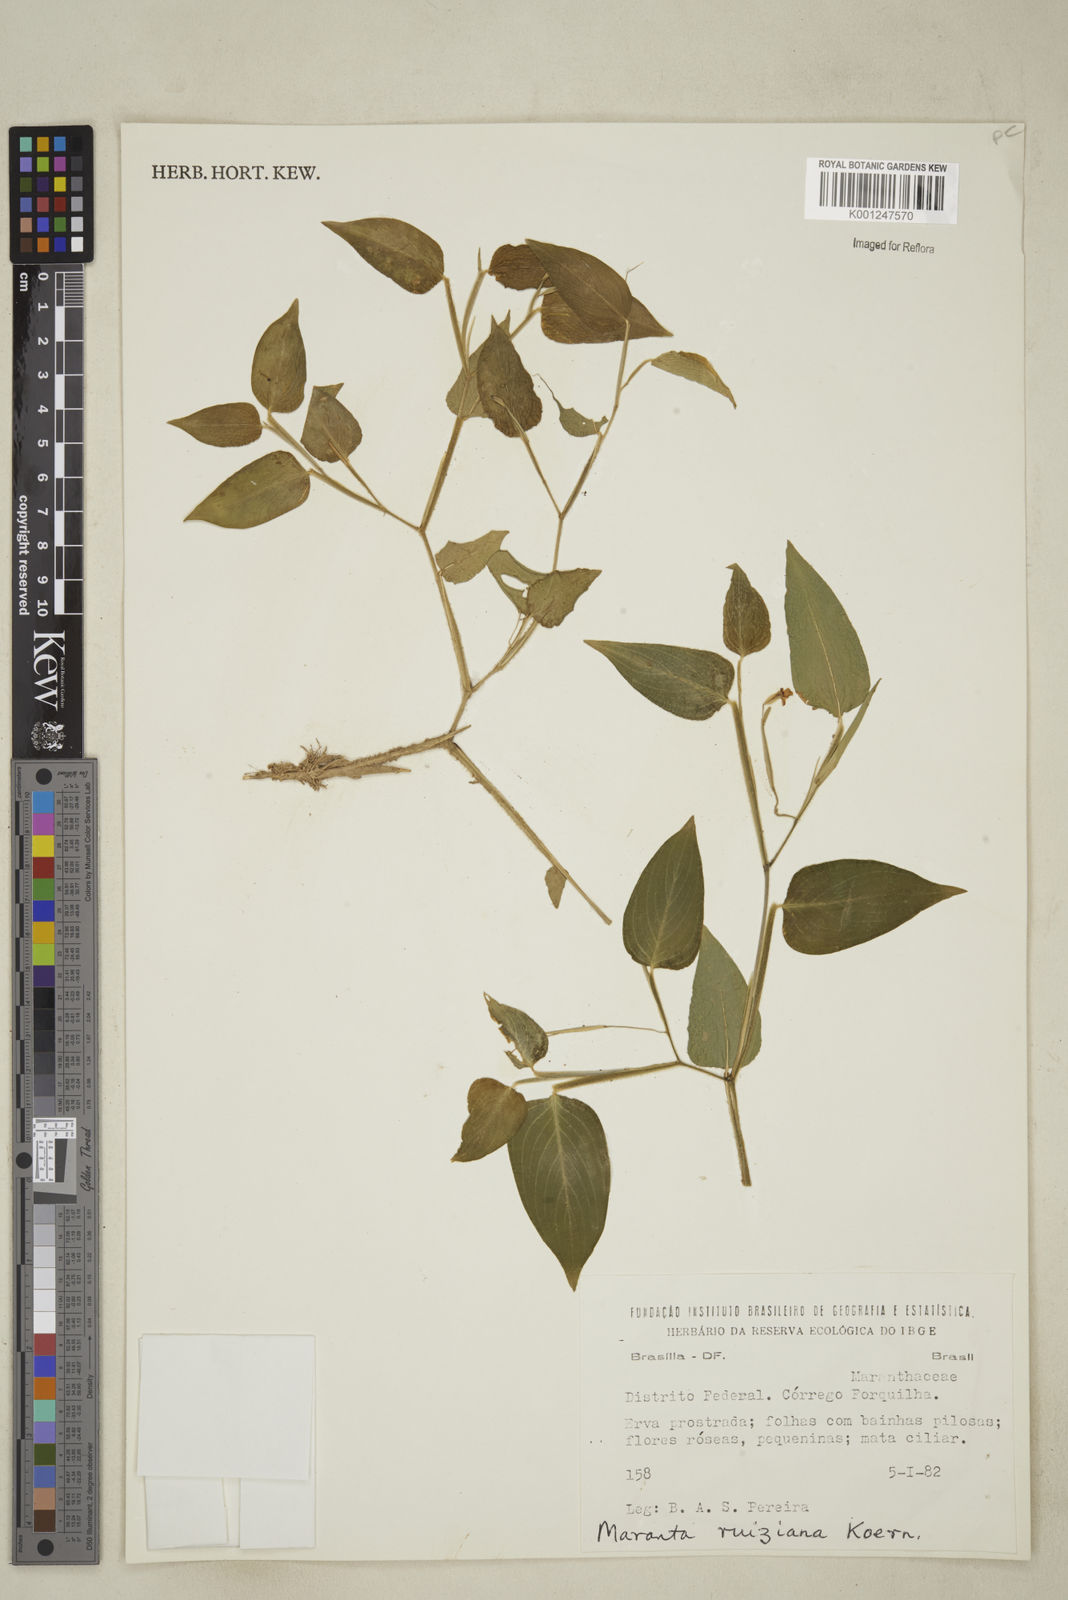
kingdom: Plantae
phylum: Tracheophyta
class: Liliopsida
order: Zingiberales
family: Marantaceae
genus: Maranta
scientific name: Maranta ruiziana
